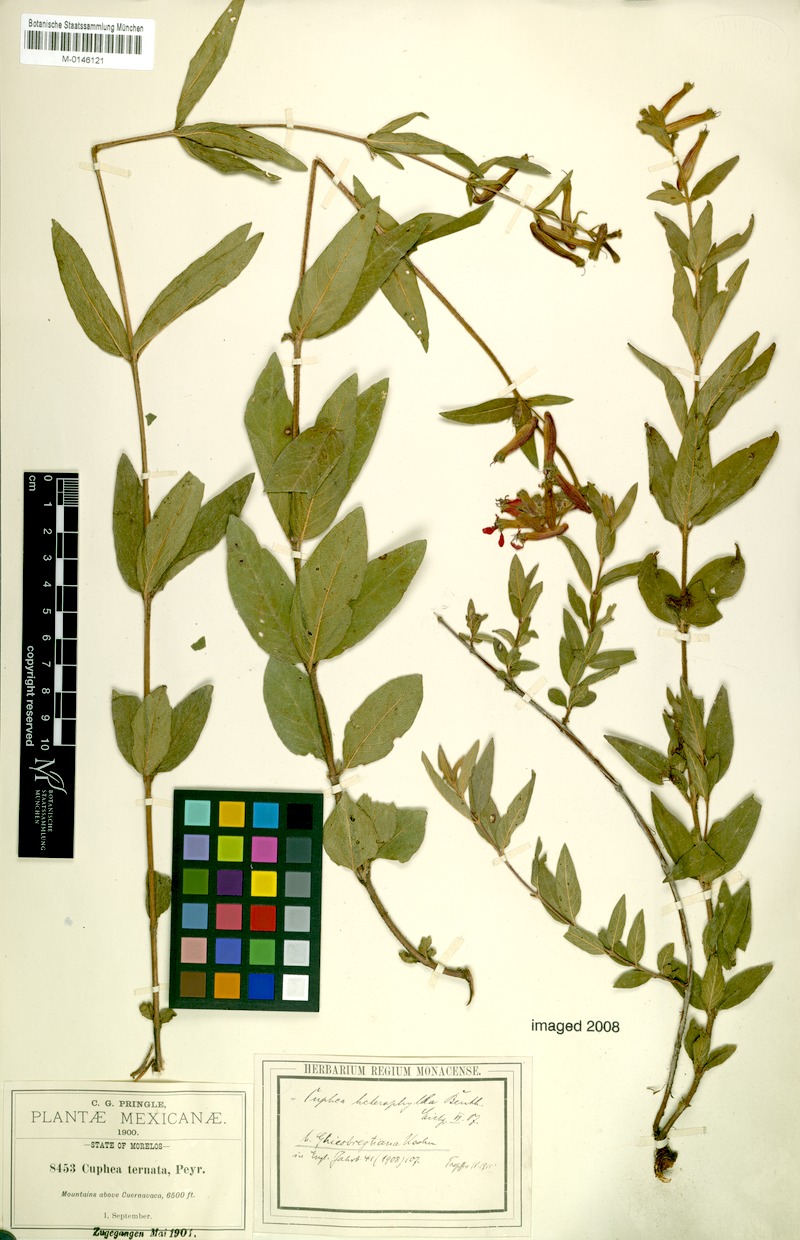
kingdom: Plantae
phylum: Tracheophyta
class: Magnoliopsida
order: Myrtales
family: Lythraceae
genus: Cuphea
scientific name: Cuphea heterophylla
